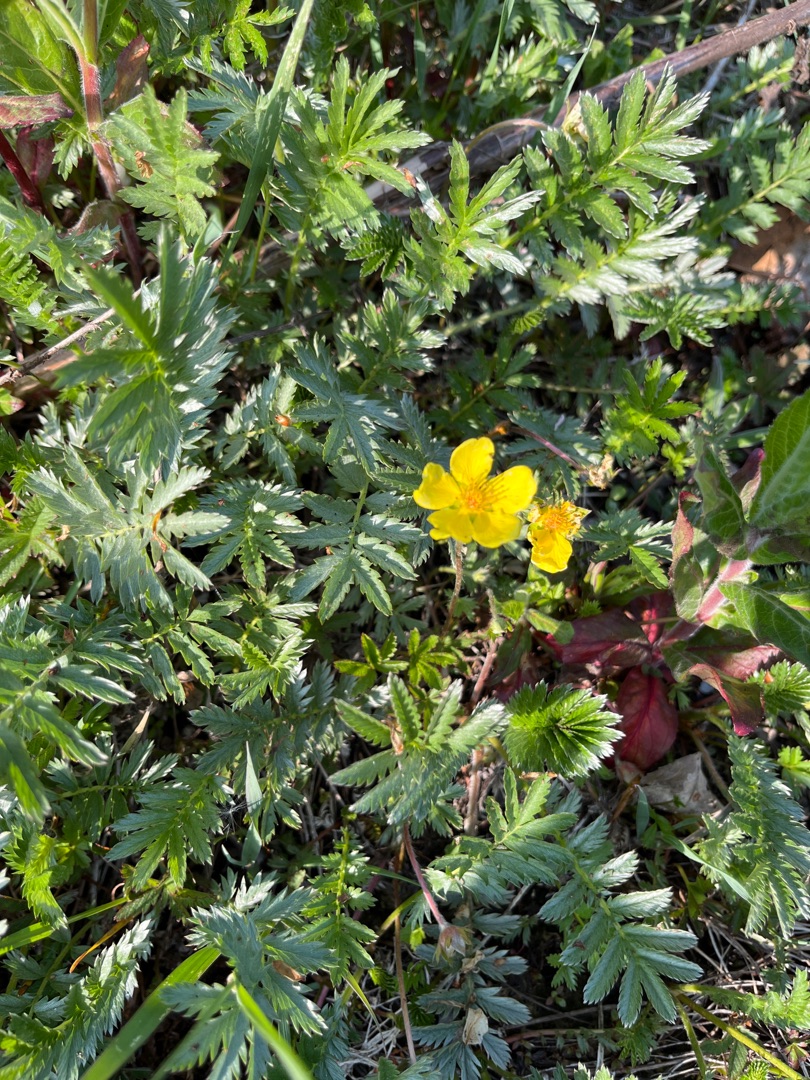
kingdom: Plantae
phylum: Tracheophyta
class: Magnoliopsida
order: Rosales
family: Rosaceae
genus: Argentina
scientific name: Argentina anserina
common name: Gåsepotentil
